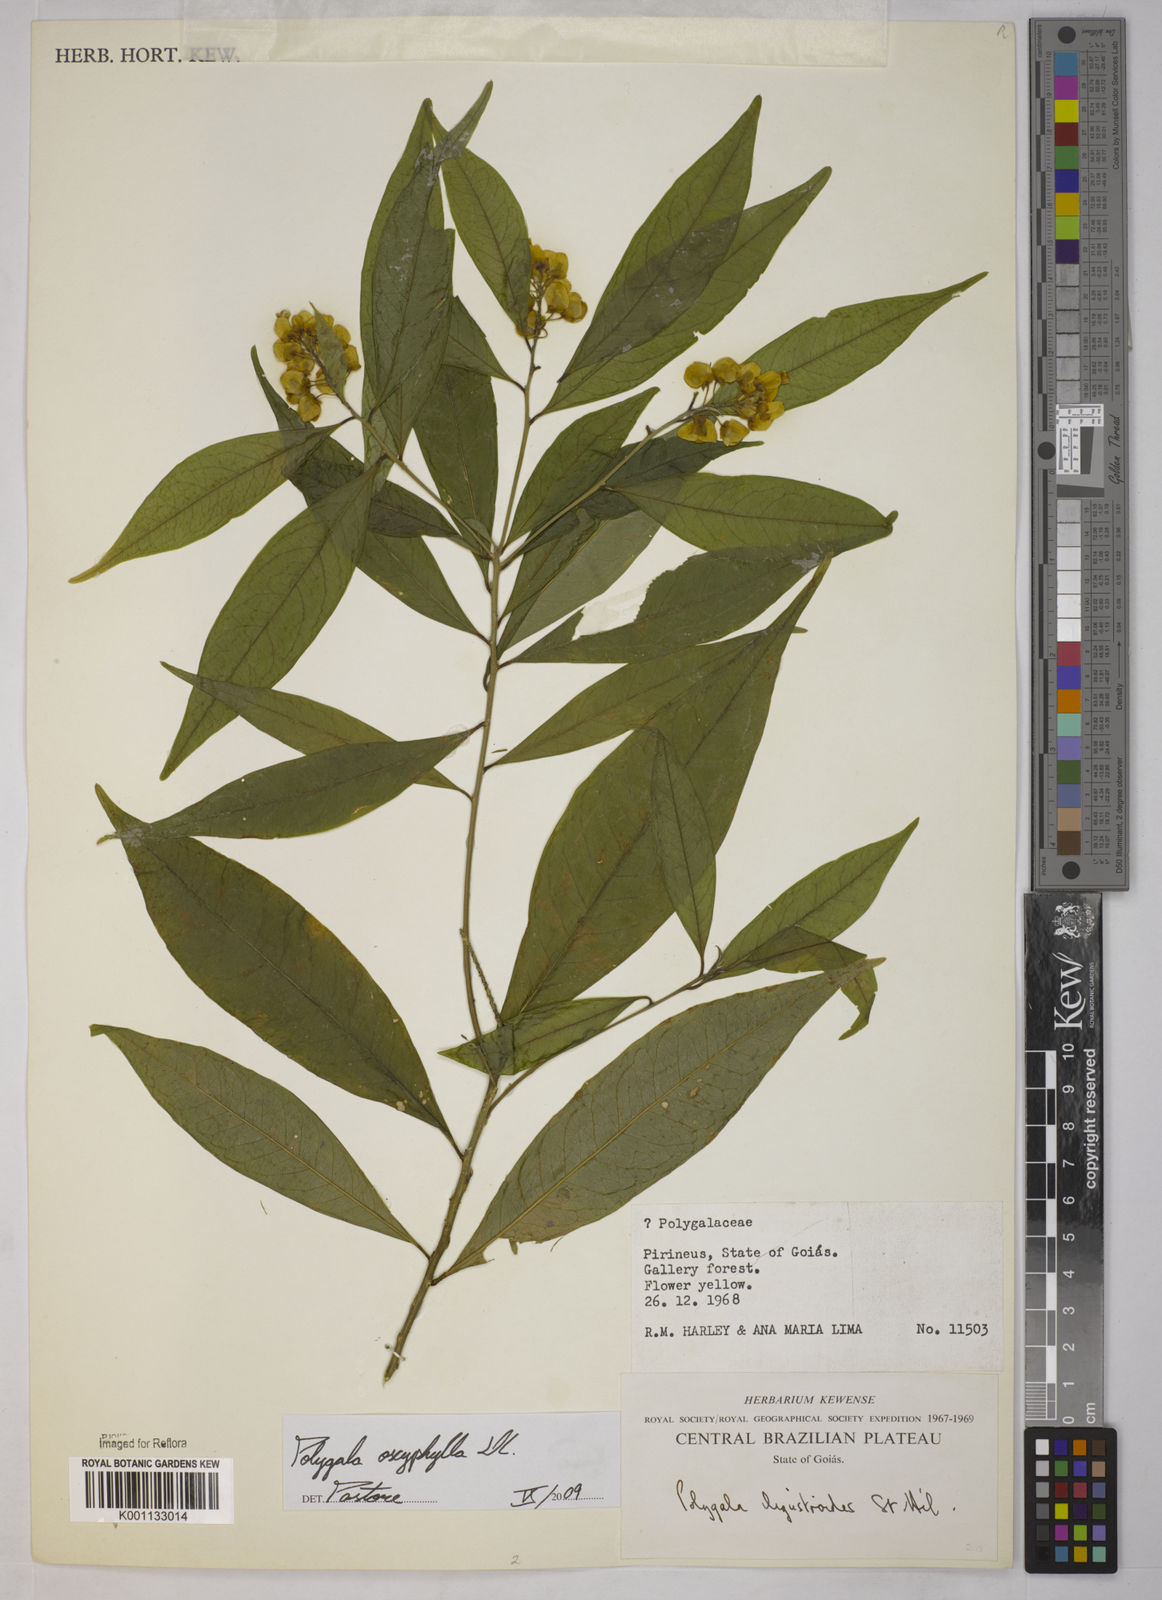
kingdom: Plantae
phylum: Tracheophyta
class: Magnoliopsida
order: Fabales
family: Polygalaceae
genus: Caamembeca
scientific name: Caamembeca oxyphylla
